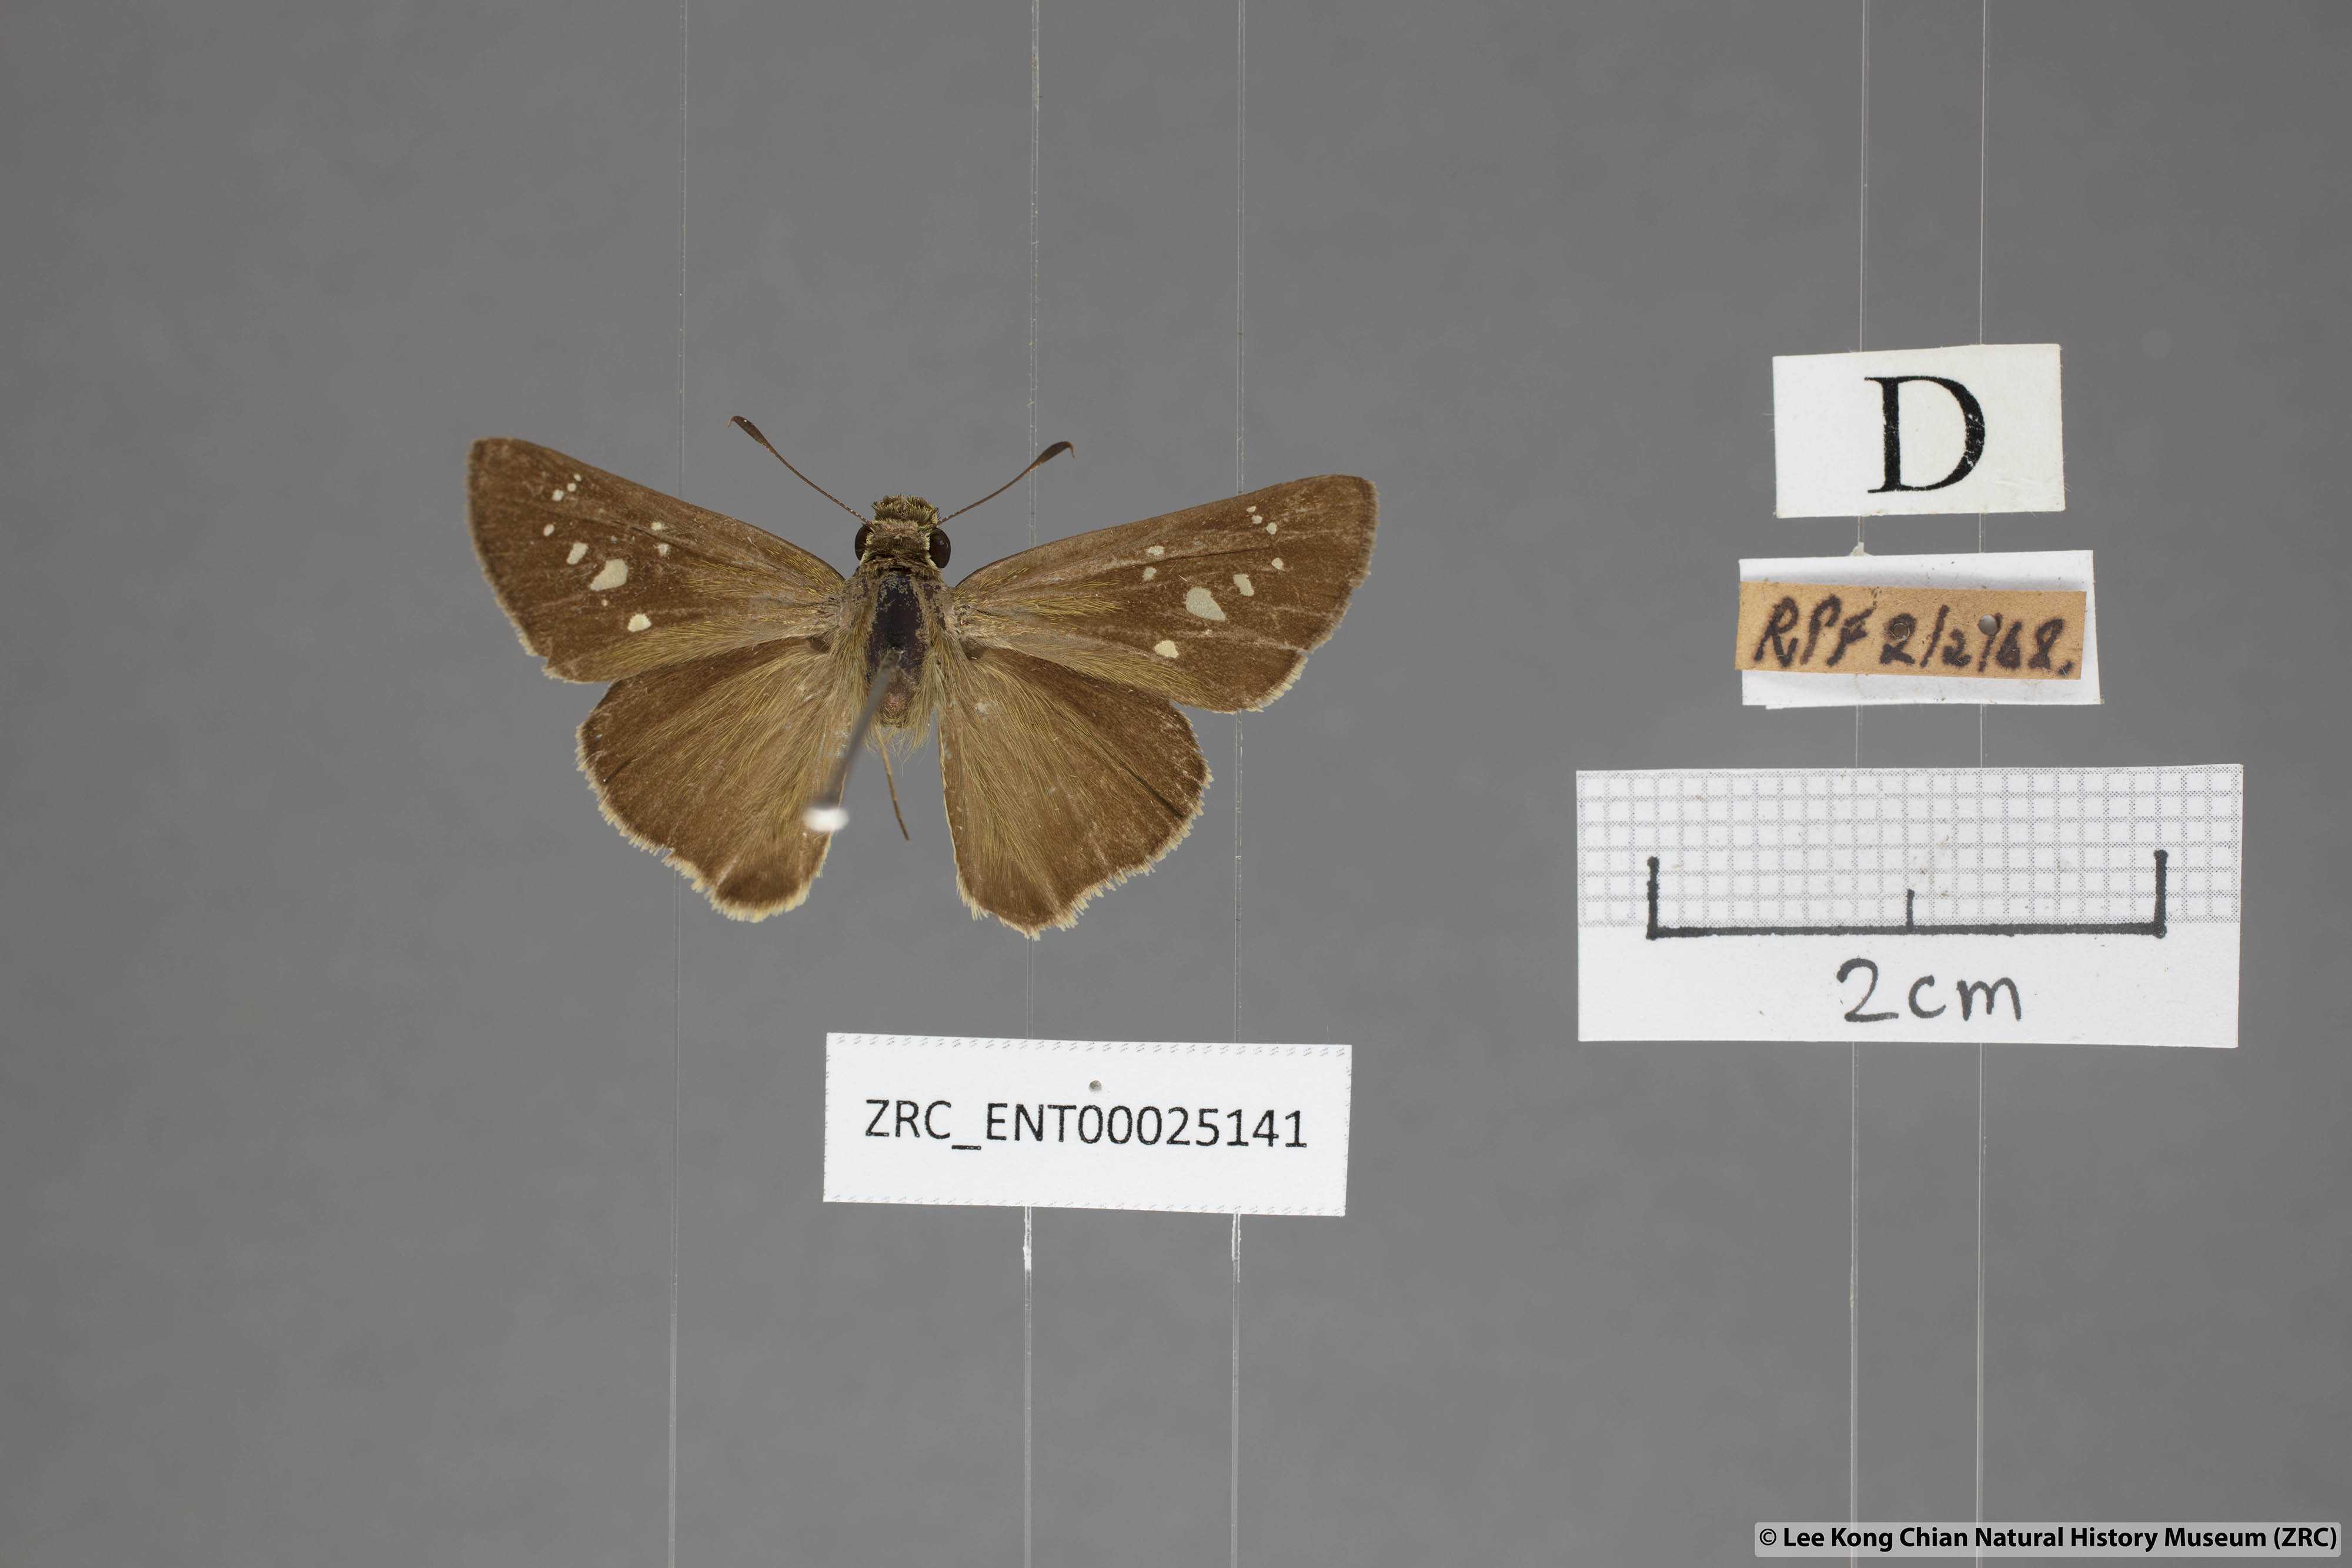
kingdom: Animalia
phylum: Arthropoda
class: Insecta
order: Lepidoptera
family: Hesperiidae
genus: Pelopidas
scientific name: Pelopidas agna
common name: Little branded swift
